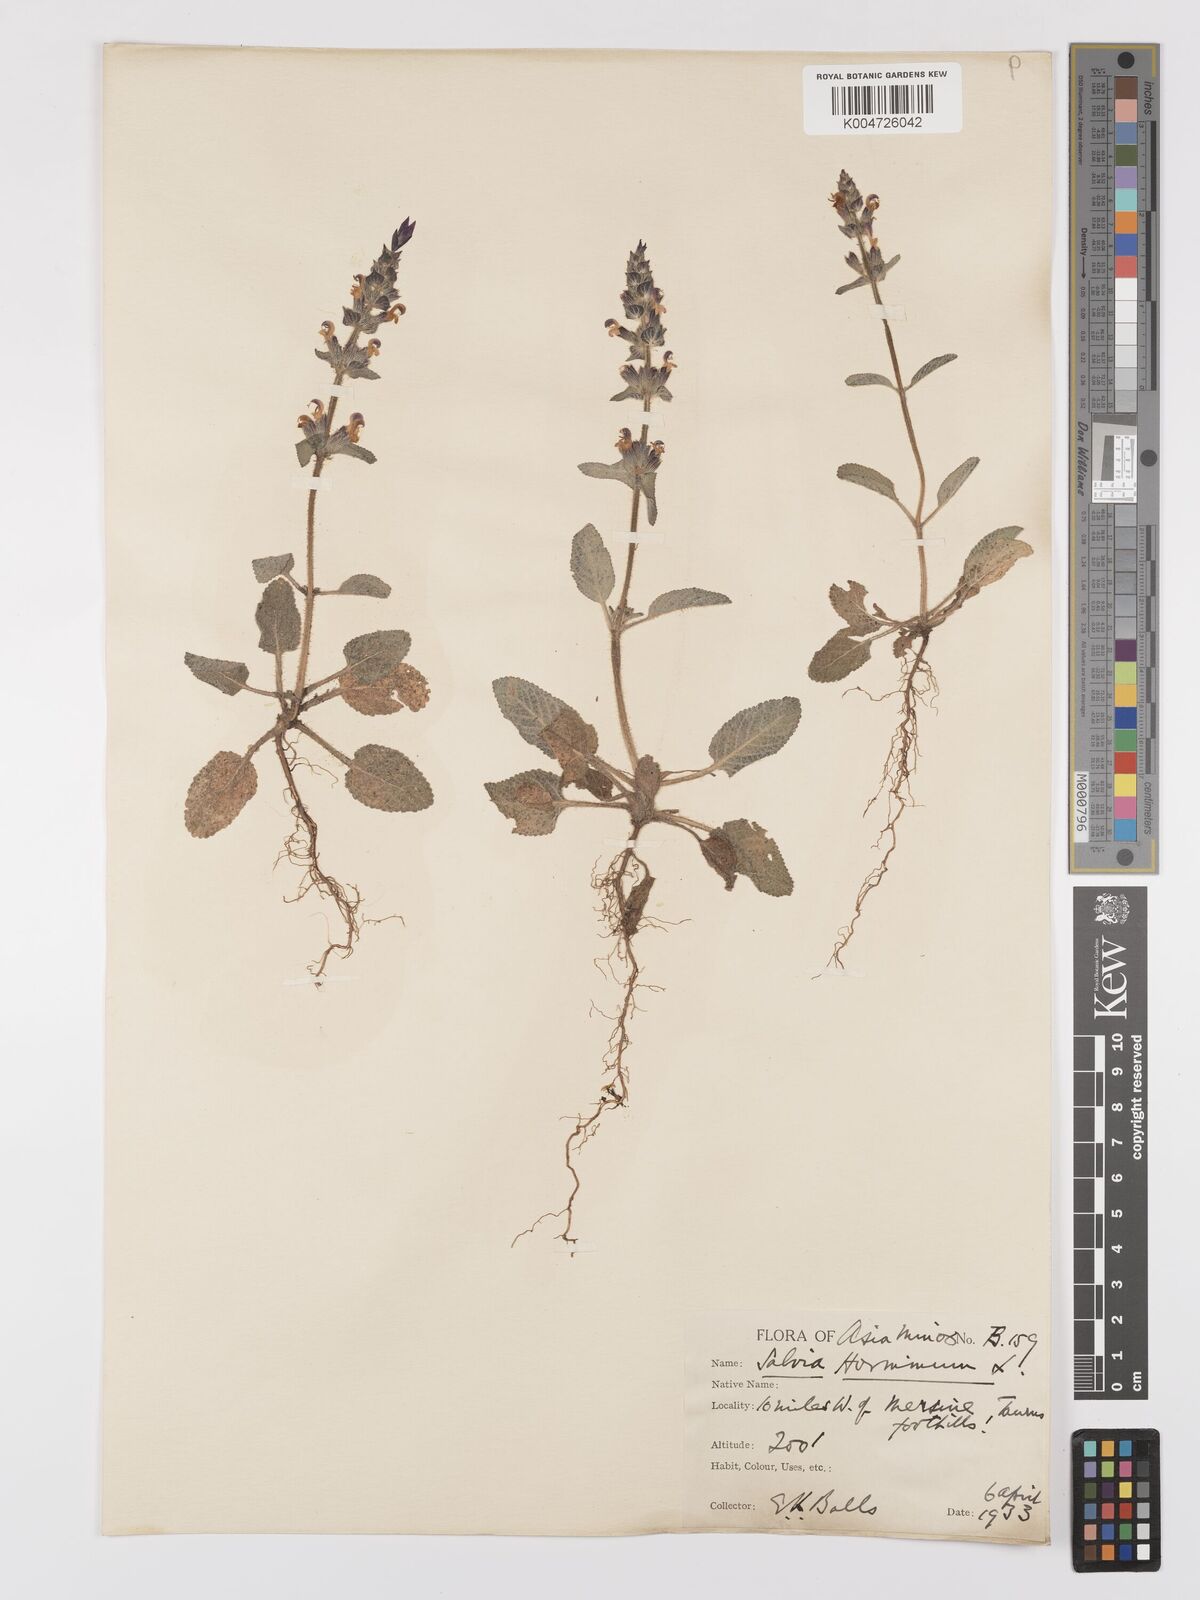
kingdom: Plantae
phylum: Tracheophyta
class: Magnoliopsida
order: Lamiales
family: Lamiaceae
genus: Salvia
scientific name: Salvia viridis
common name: Annual clary
